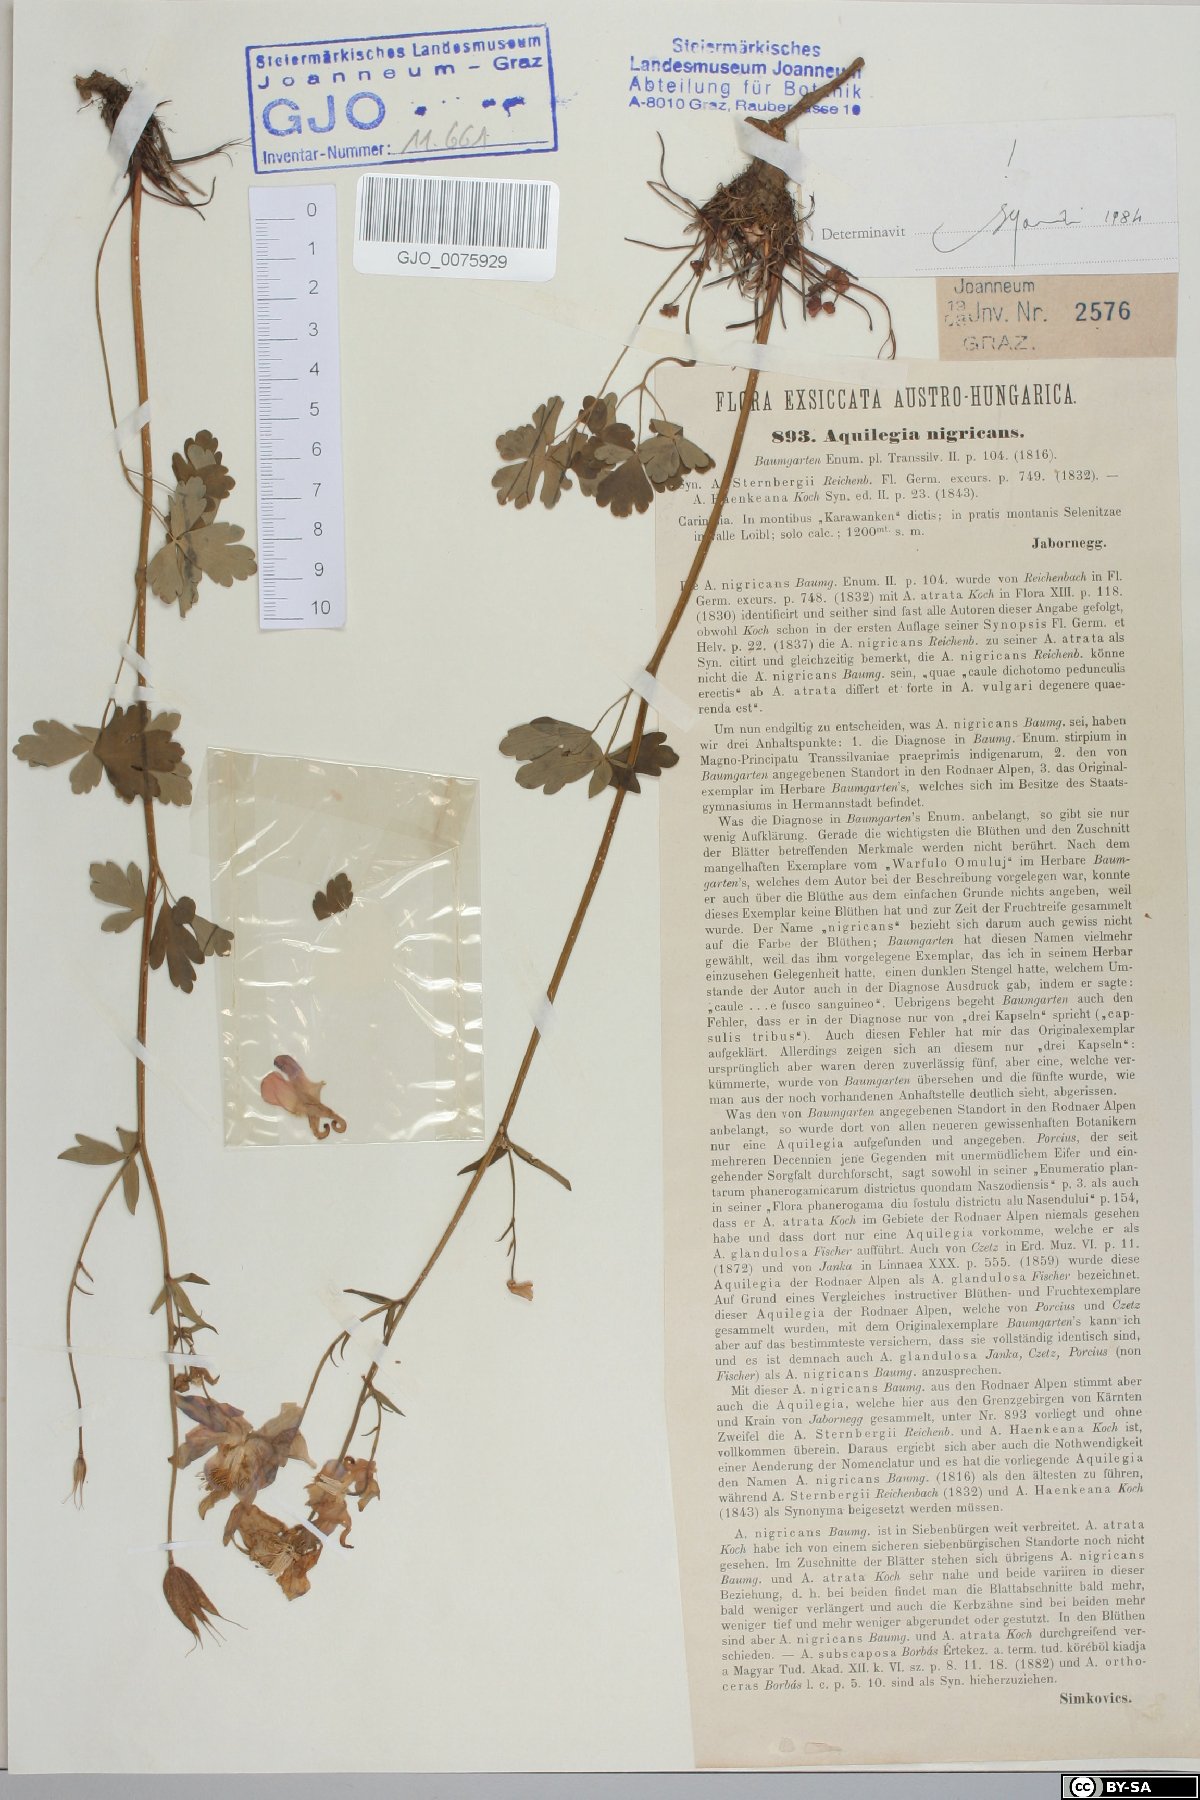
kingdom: Plantae
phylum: Tracheophyta
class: Magnoliopsida
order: Ranunculales
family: Ranunculaceae
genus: Aquilegia
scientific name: Aquilegia nigricans
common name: Bulgarian columbine
